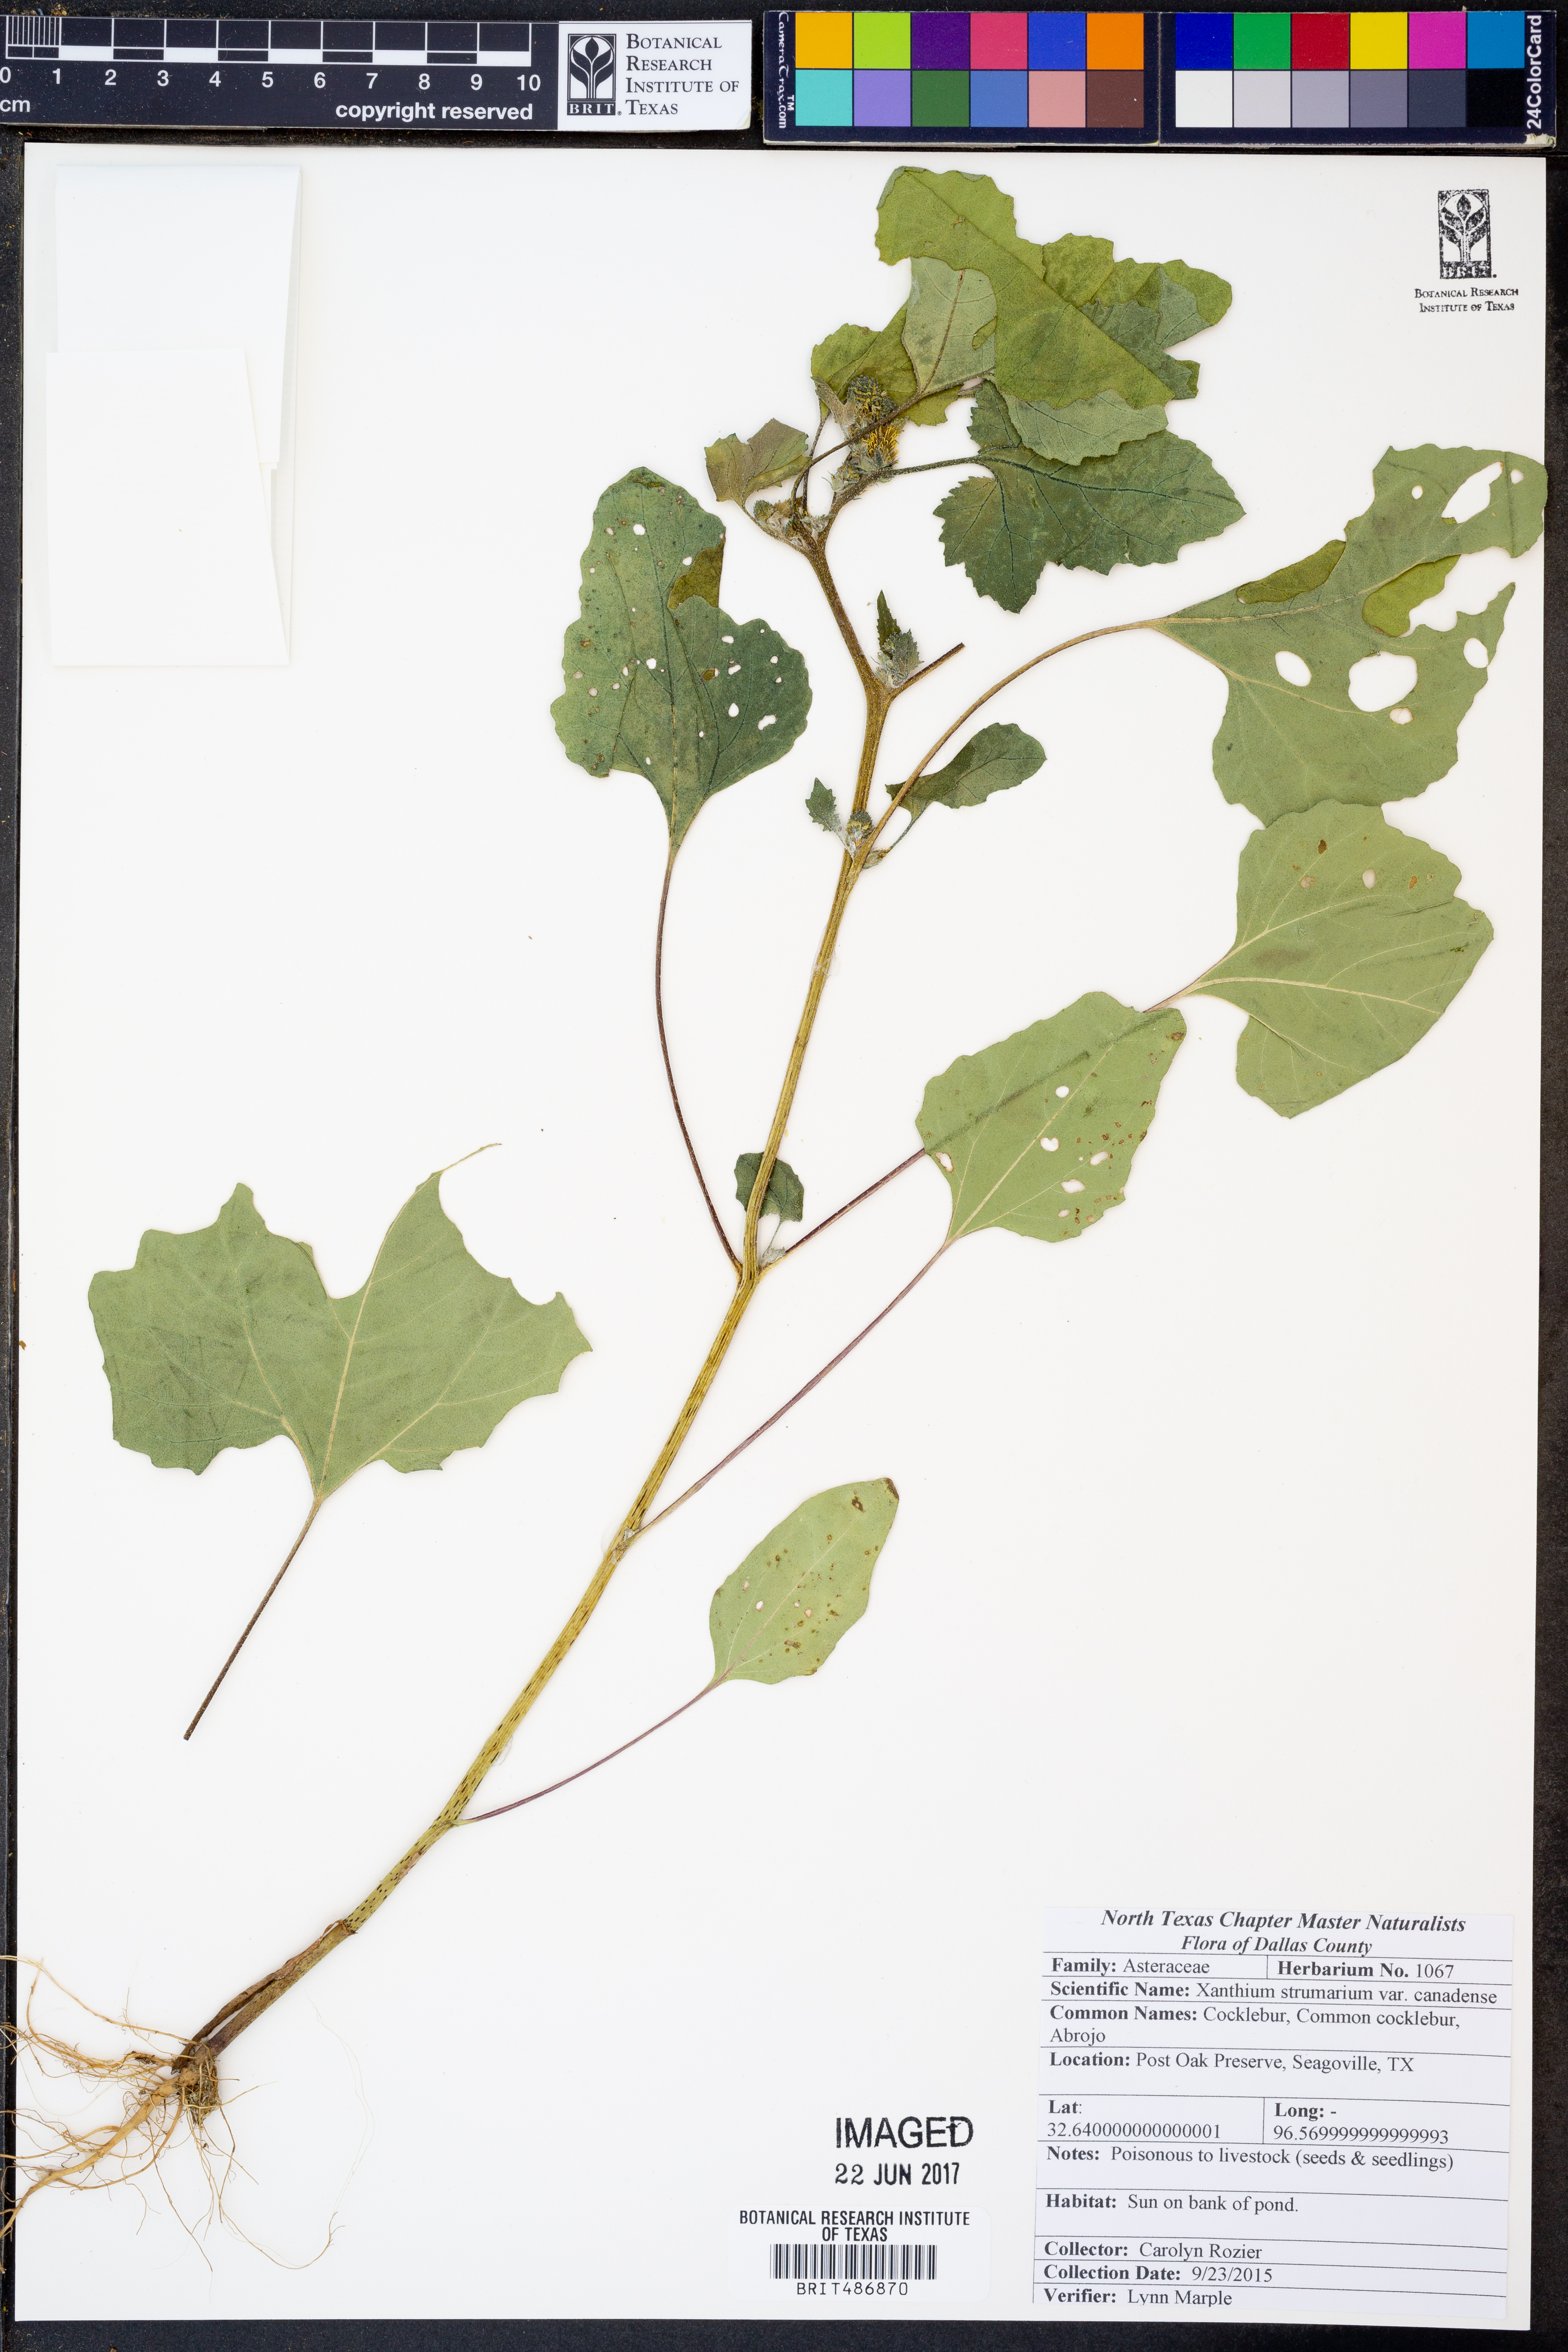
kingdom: Plantae
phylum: Tracheophyta
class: Magnoliopsida
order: Asterales
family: Asteraceae
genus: Xanthium
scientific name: Xanthium orientale
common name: Californian burr
